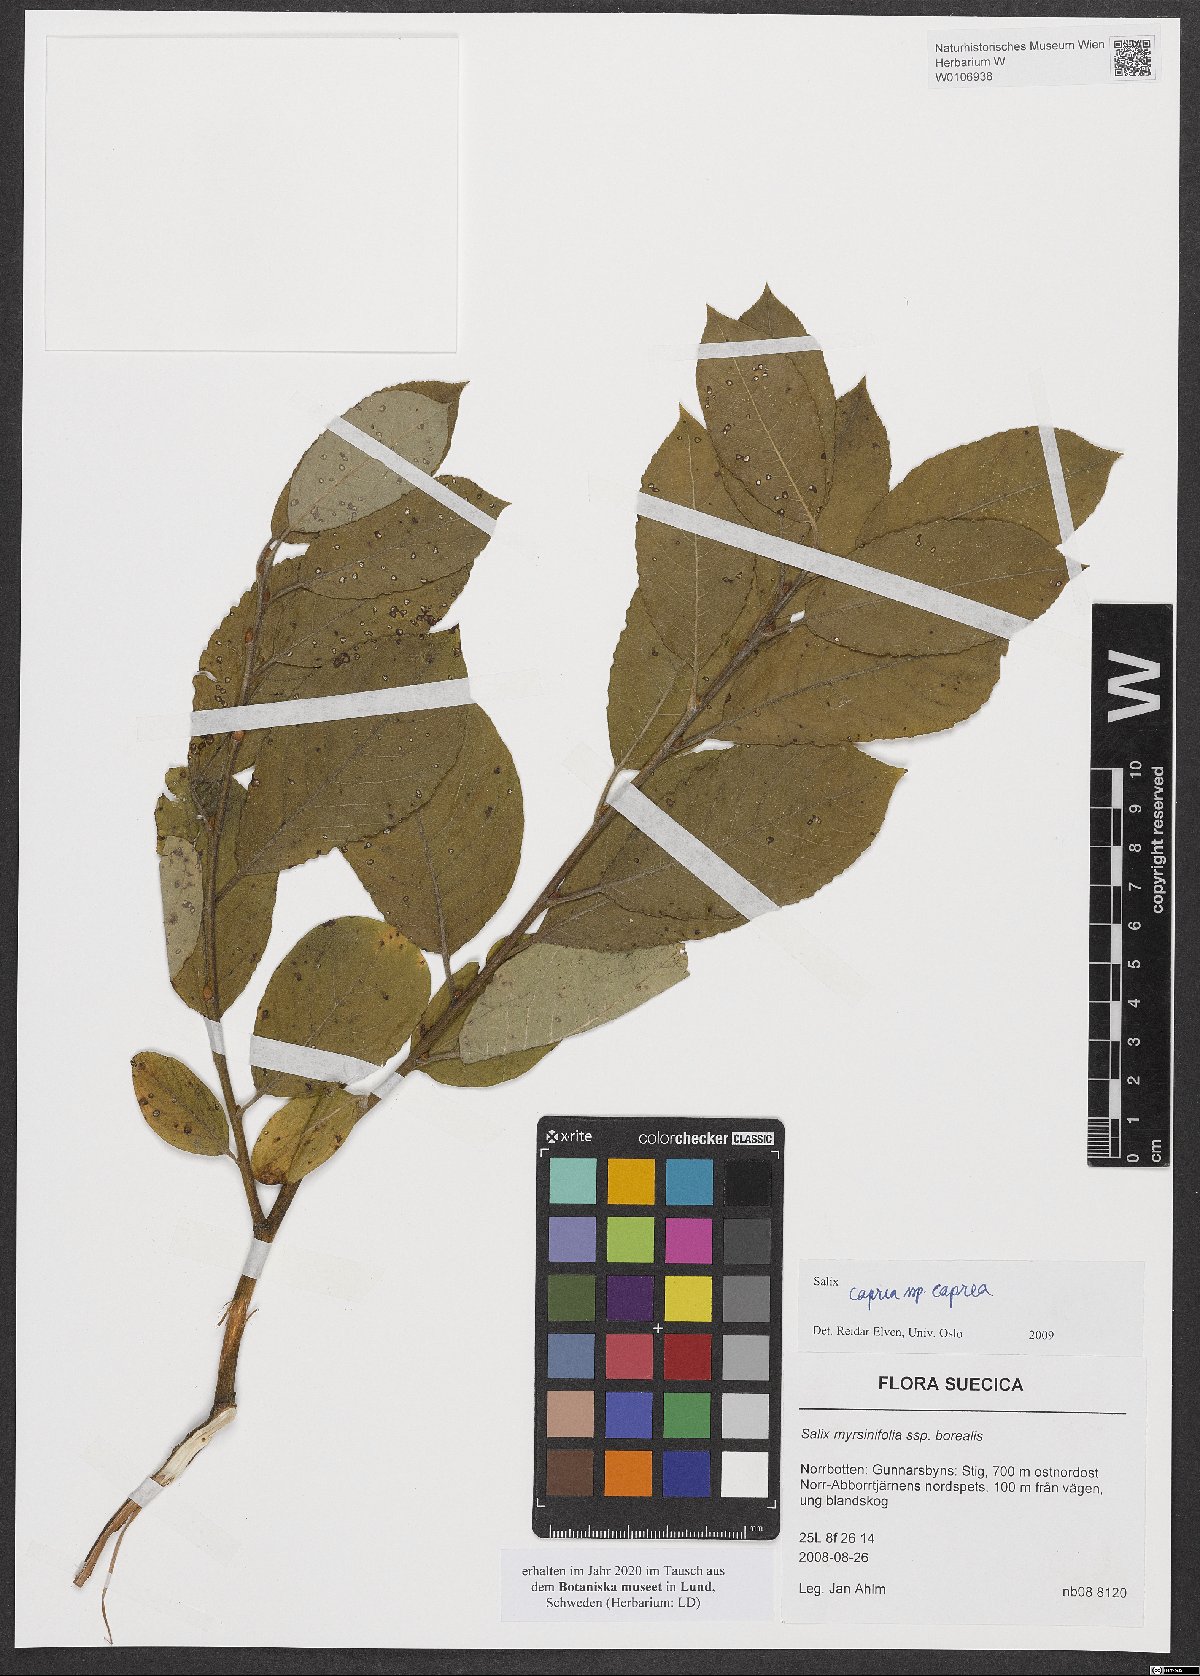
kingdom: Plantae
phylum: Tracheophyta
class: Magnoliopsida
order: Malpighiales
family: Salicaceae
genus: Salix
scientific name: Salix caprea
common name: Goat willow
